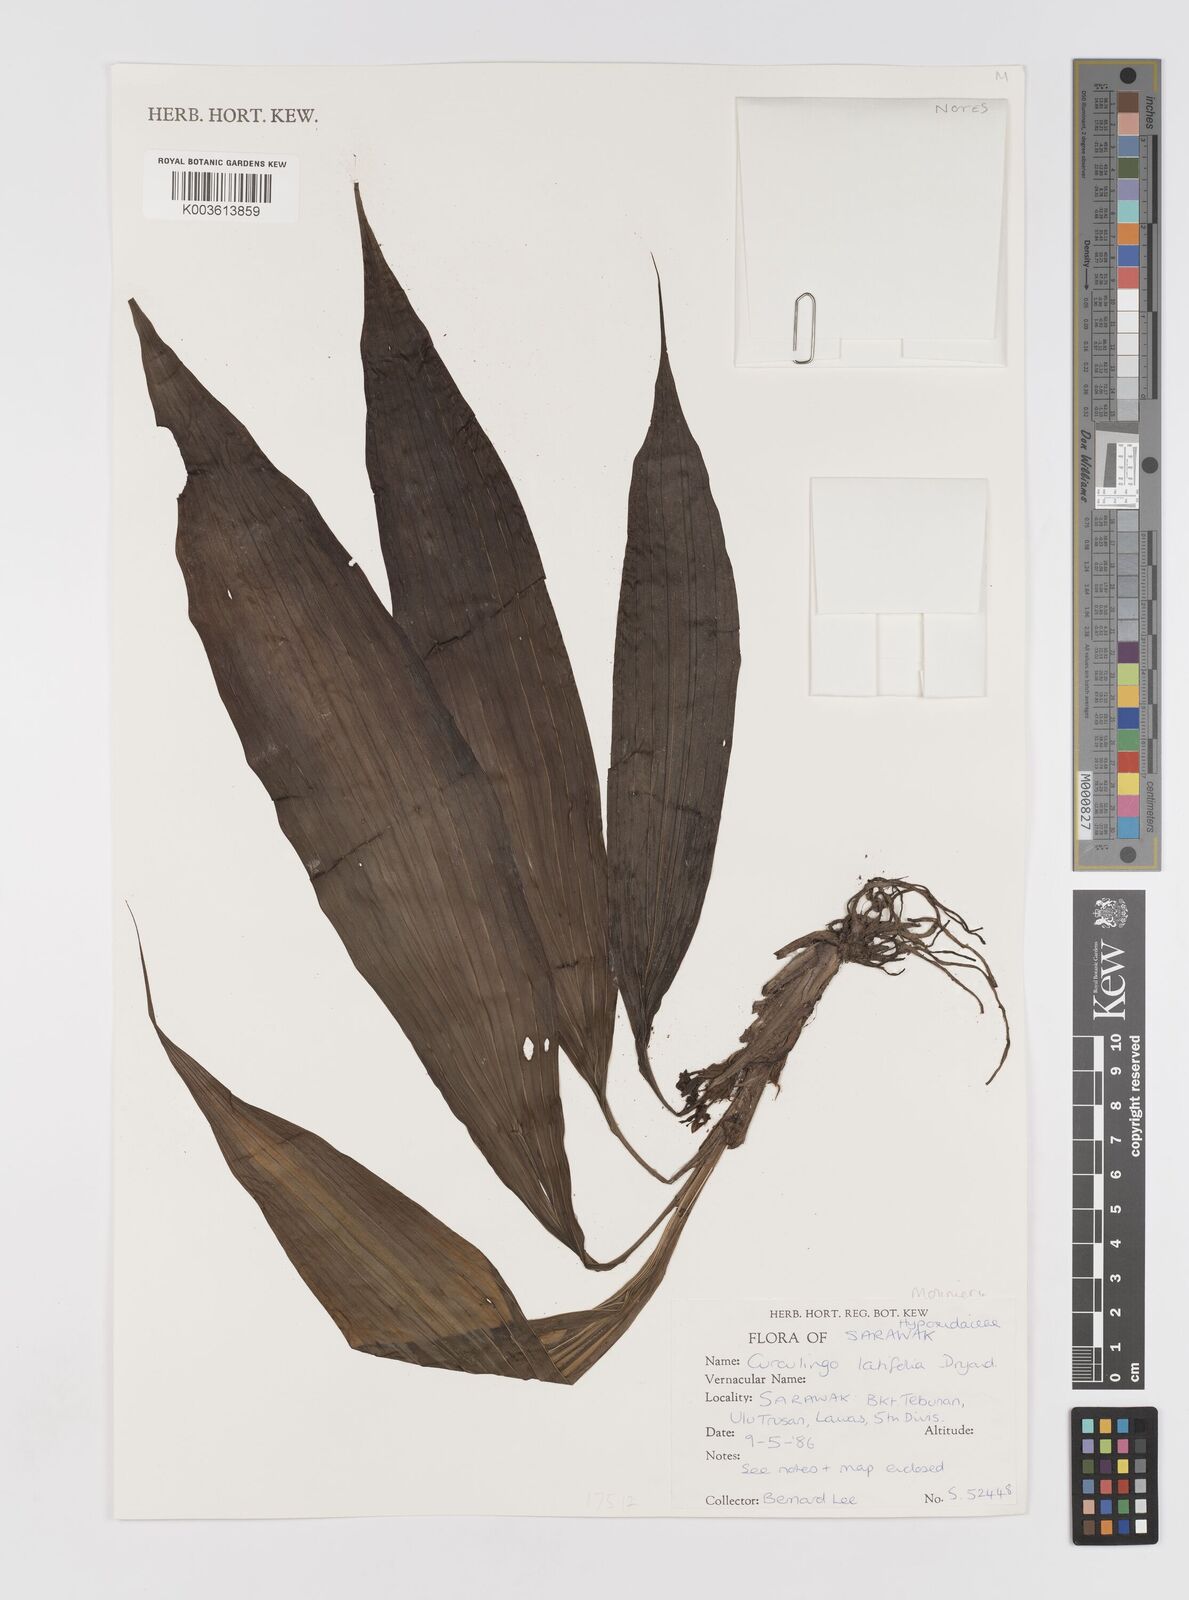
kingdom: Plantae
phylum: Tracheophyta
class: Liliopsida
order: Asparagales
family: Hypoxidaceae
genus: Curculigo
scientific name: Curculigo latifolia
